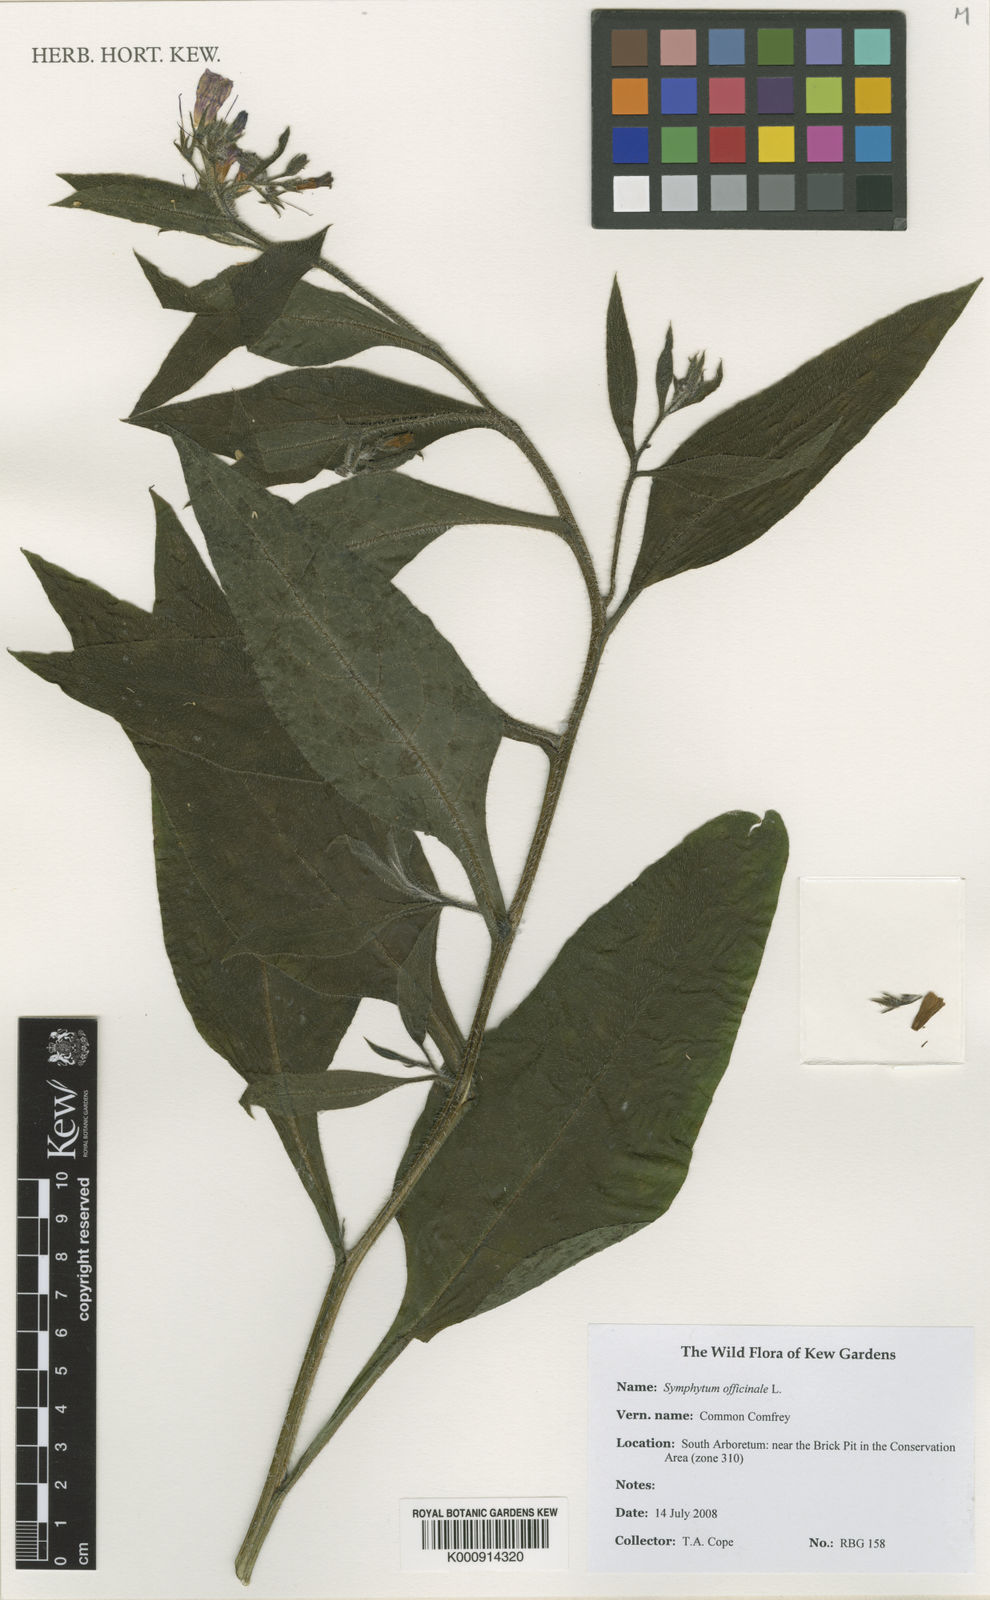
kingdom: Plantae
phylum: Tracheophyta
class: Magnoliopsida
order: Boraginales
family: Boraginaceae
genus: Symphytum
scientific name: Symphytum officinale
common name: Common comfrey
